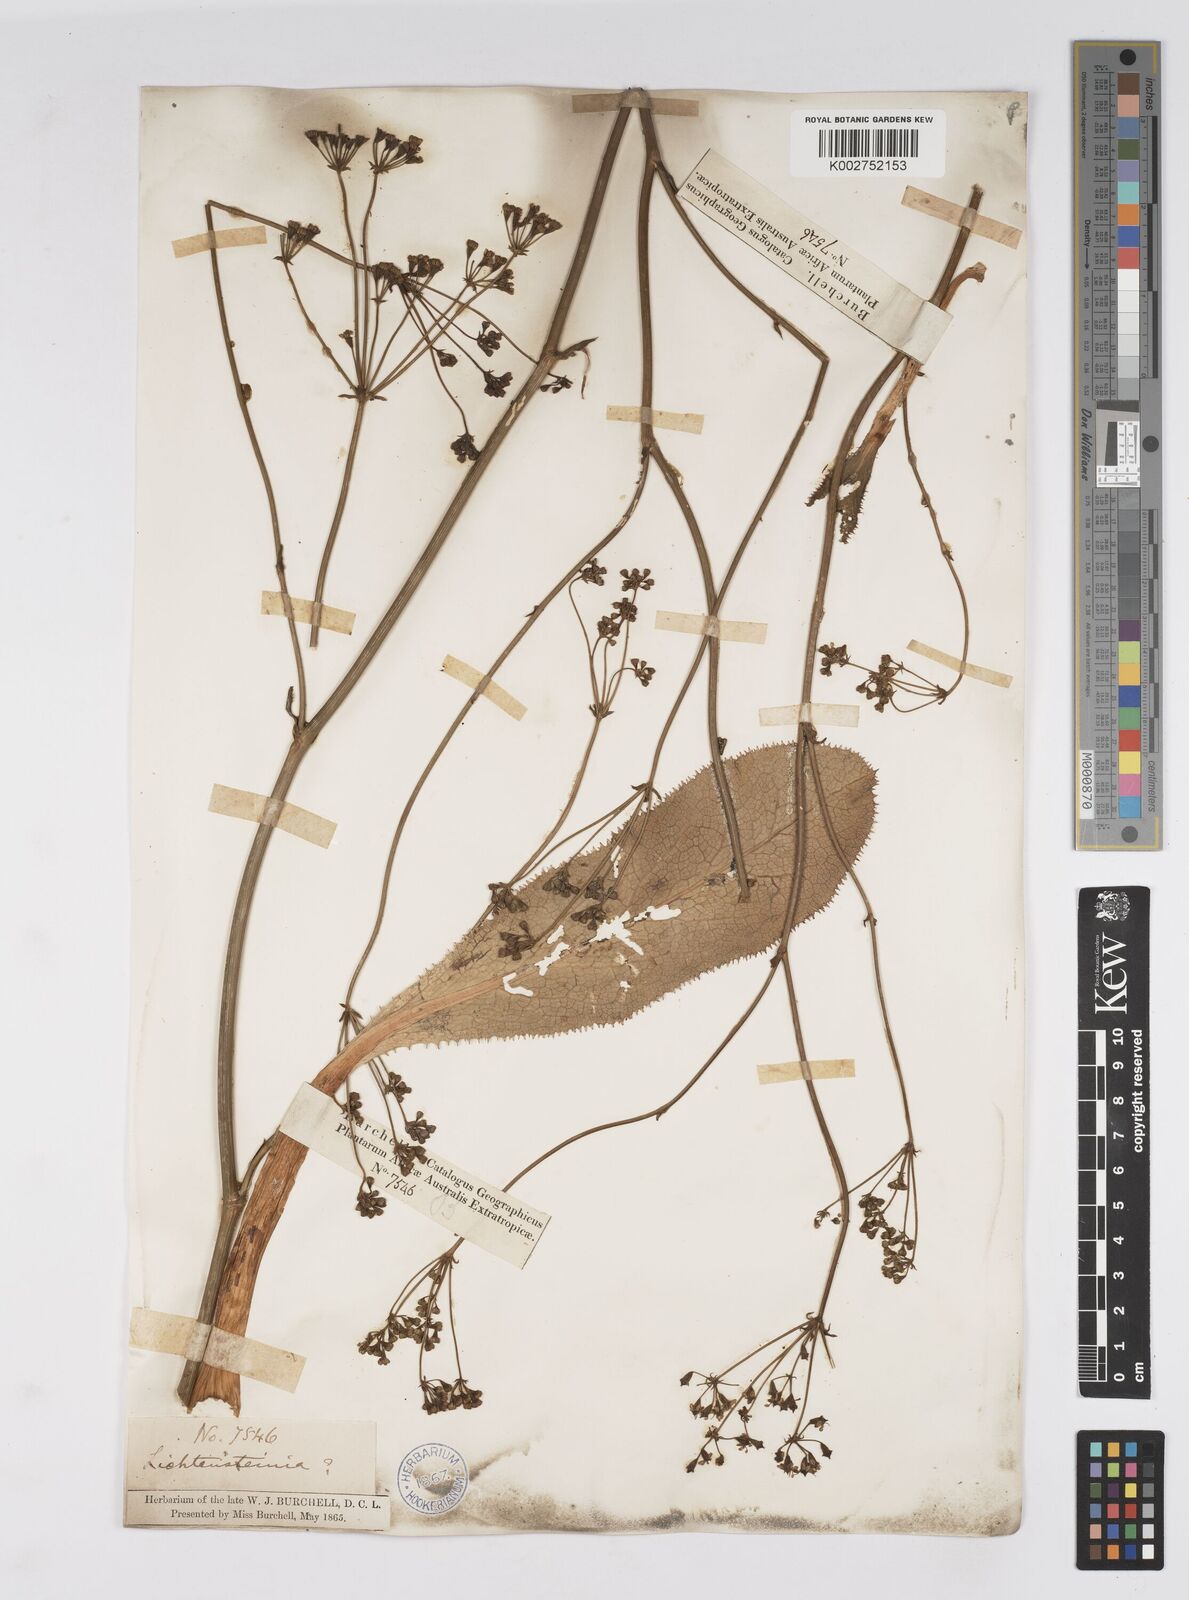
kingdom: Plantae
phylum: Tracheophyta
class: Magnoliopsida
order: Apiales
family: Apiaceae
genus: Lichtensteinia
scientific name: Lichtensteinia
